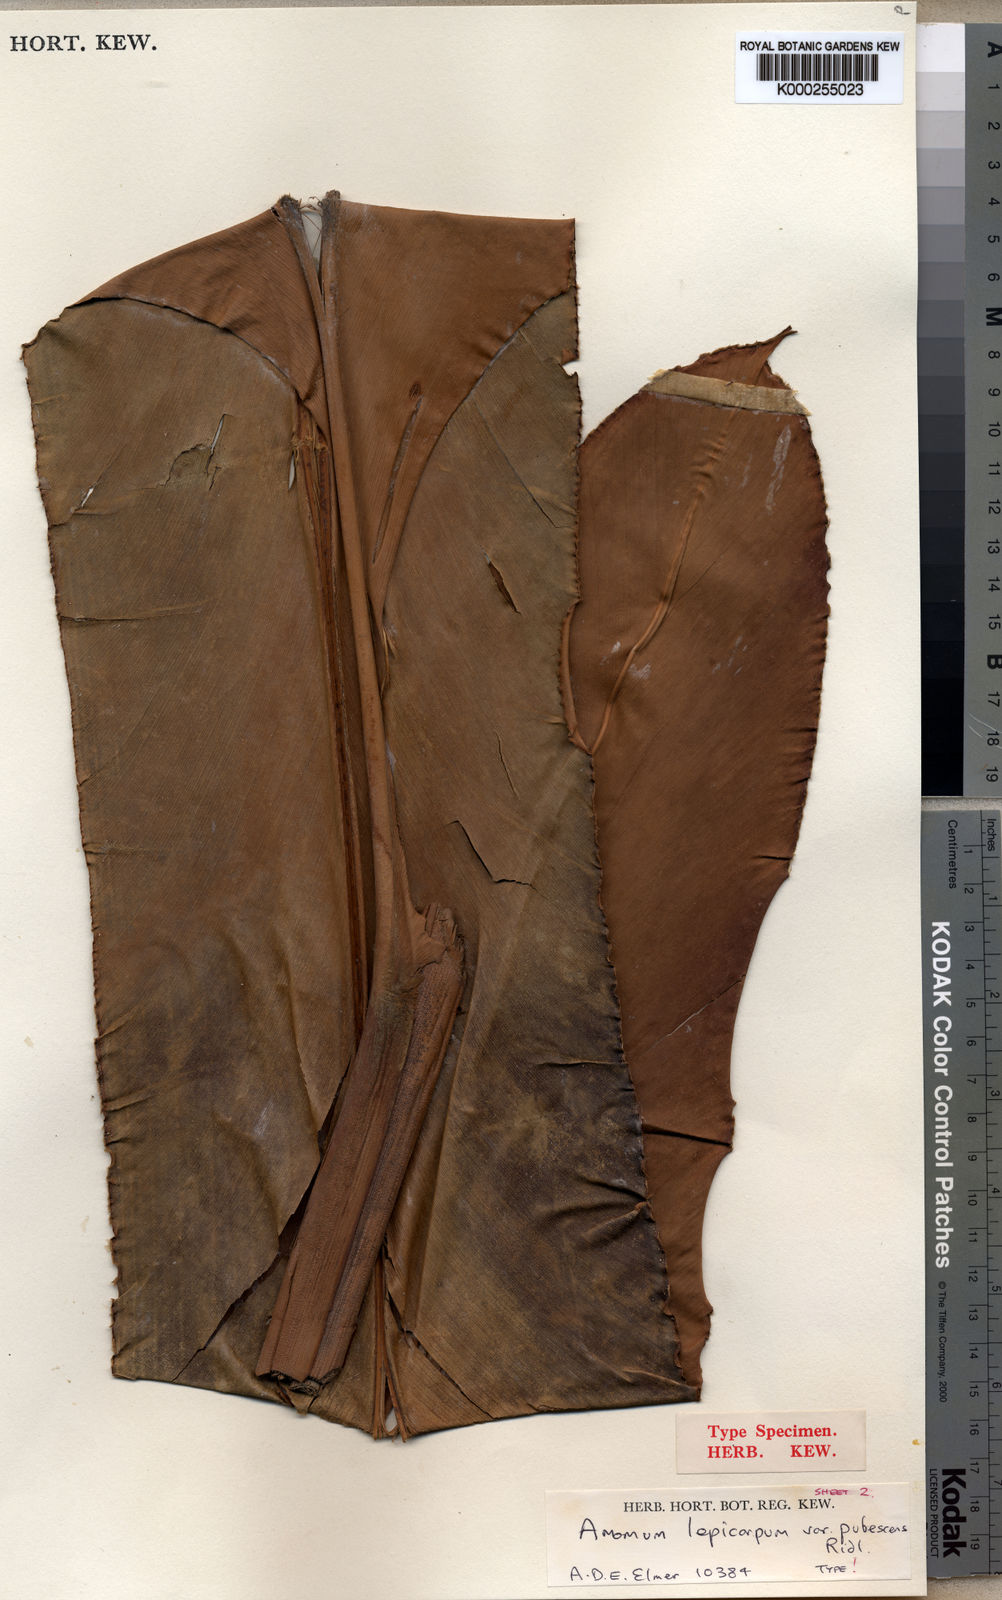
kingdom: Plantae
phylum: Tracheophyta
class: Liliopsida
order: Zingiberales
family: Zingiberaceae
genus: Etlingera
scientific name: Etlingera pilosa
